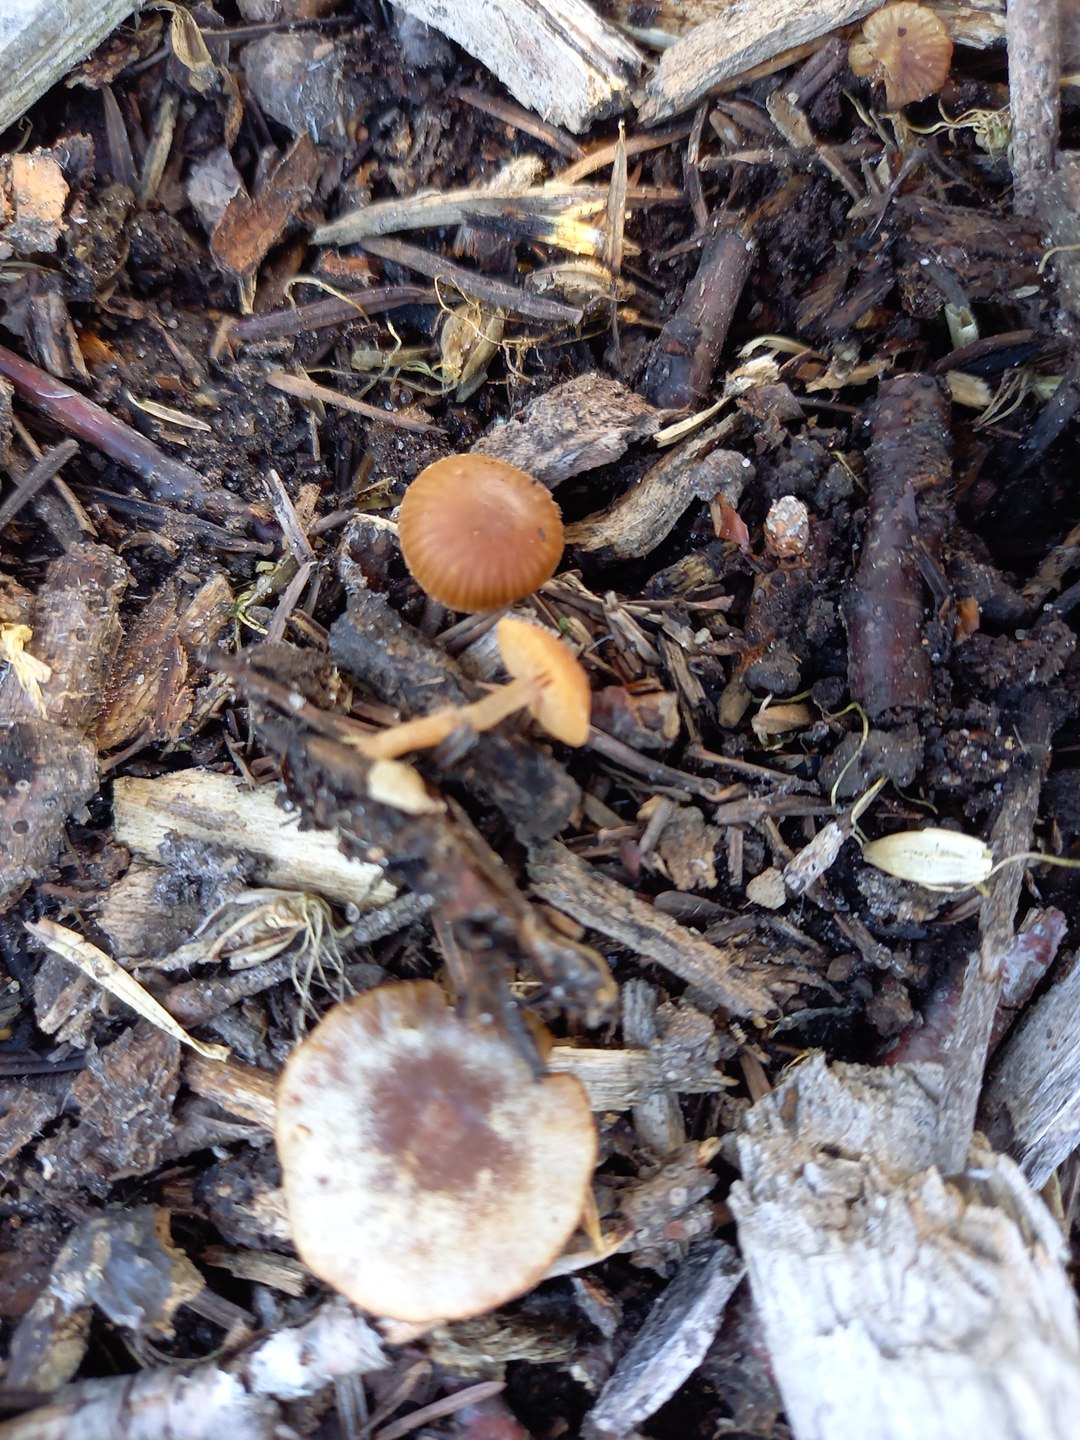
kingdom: Fungi
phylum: Basidiomycota
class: Agaricomycetes
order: Agaricales
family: Tubariaceae
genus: Tubaria
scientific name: Tubaria furfuracea
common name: kliddet fnughat
